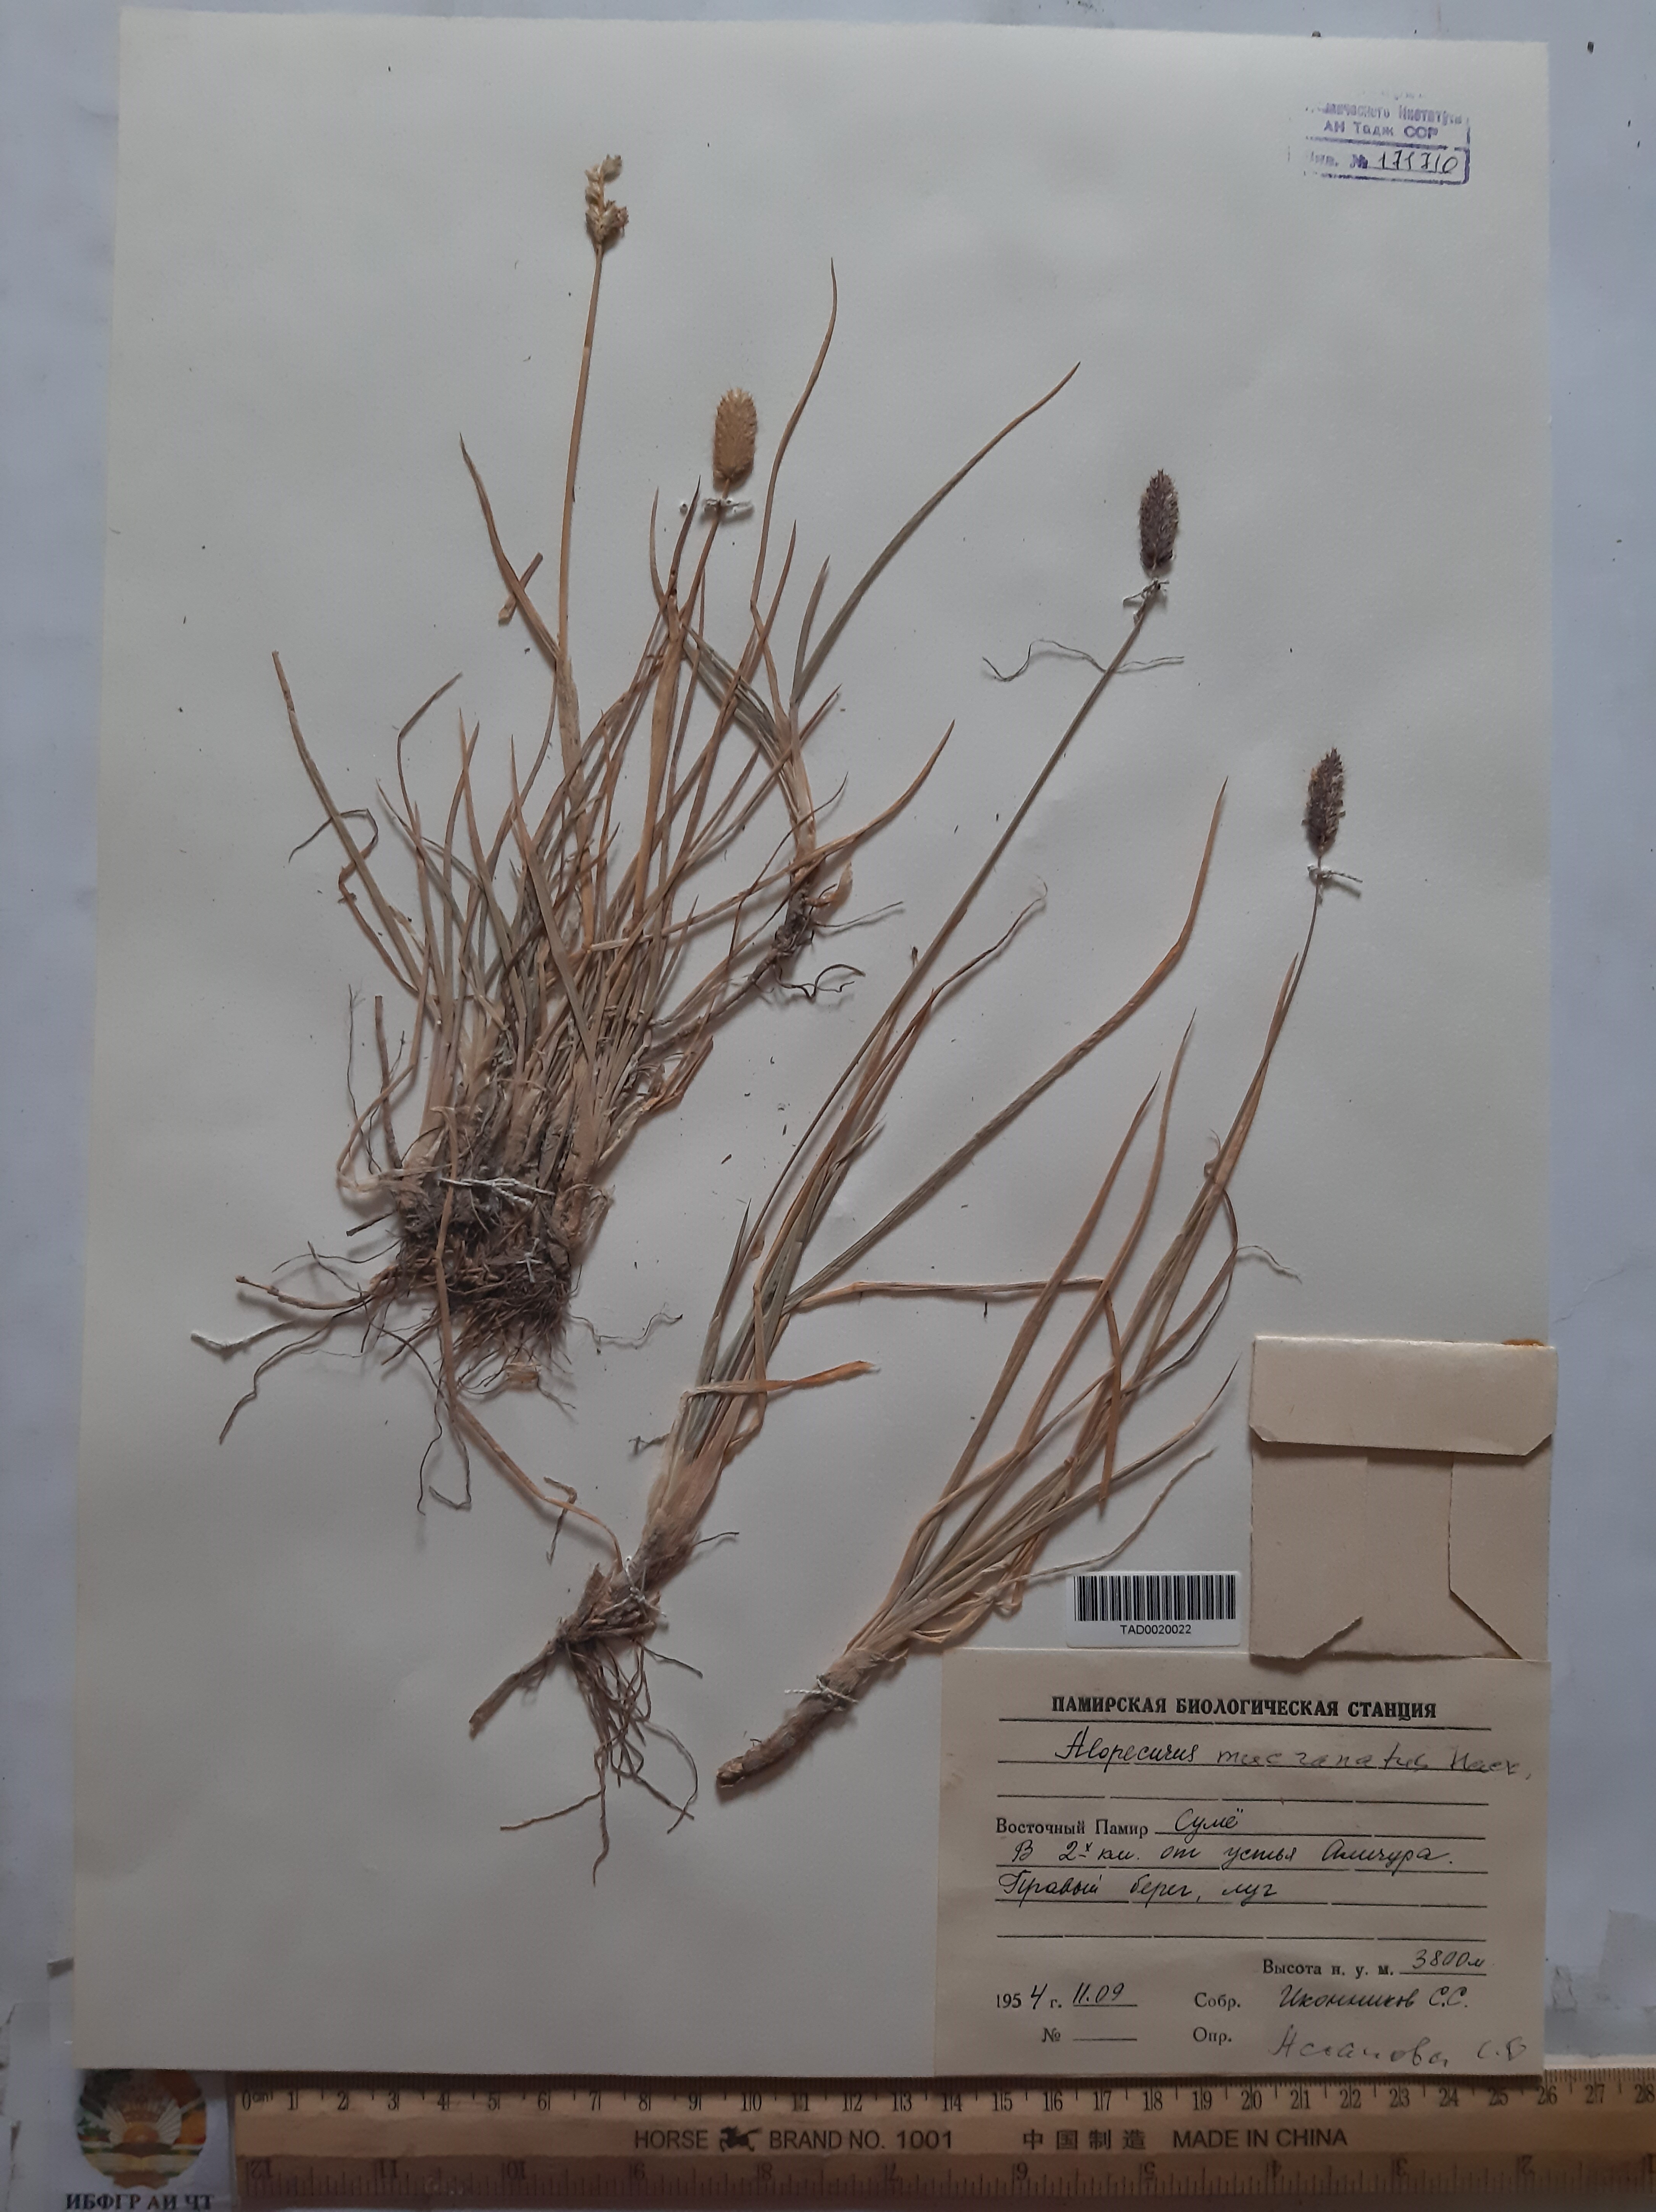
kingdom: Plantae
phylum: Tracheophyta
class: Liliopsida
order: Poales
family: Poaceae
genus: Alopecurus
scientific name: Alopecurus mucronatus
